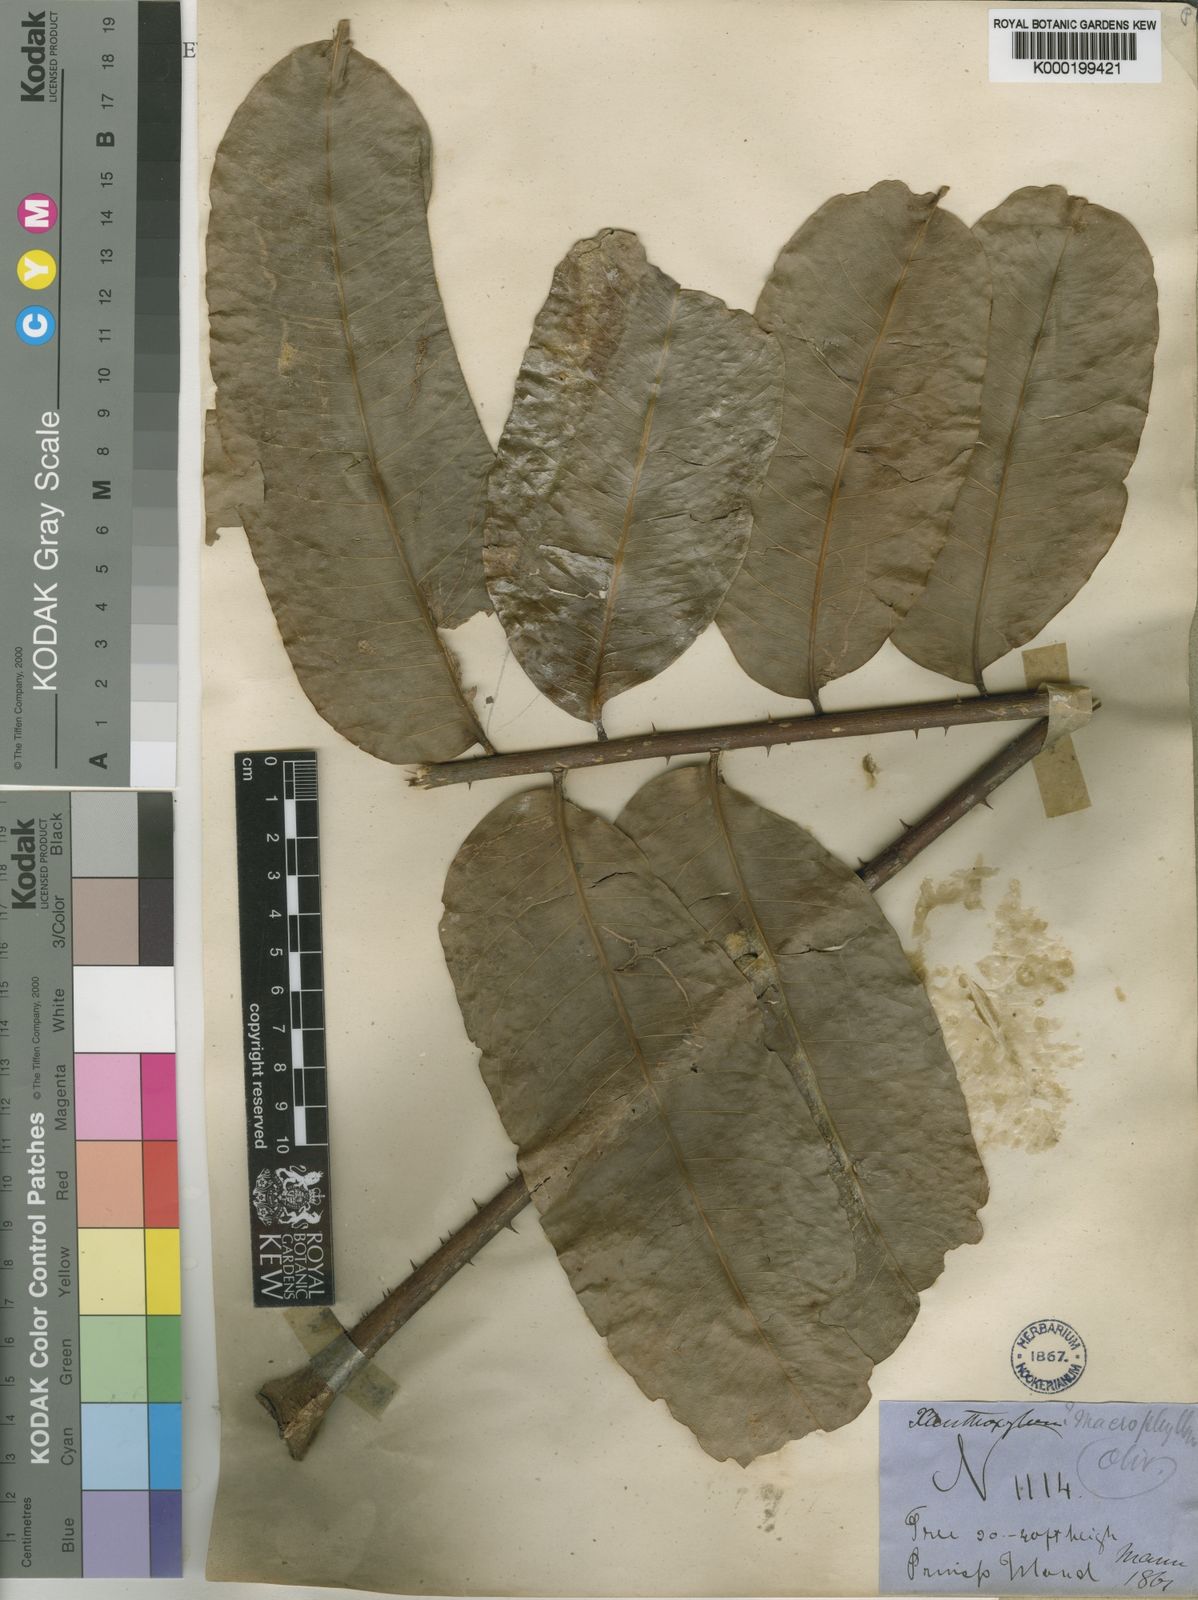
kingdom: Plantae
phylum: Tracheophyta
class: Magnoliopsida
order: Sapindales
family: Rutaceae
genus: Zanthoxylum
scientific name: Zanthoxylum gilletii
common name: African satinwood
